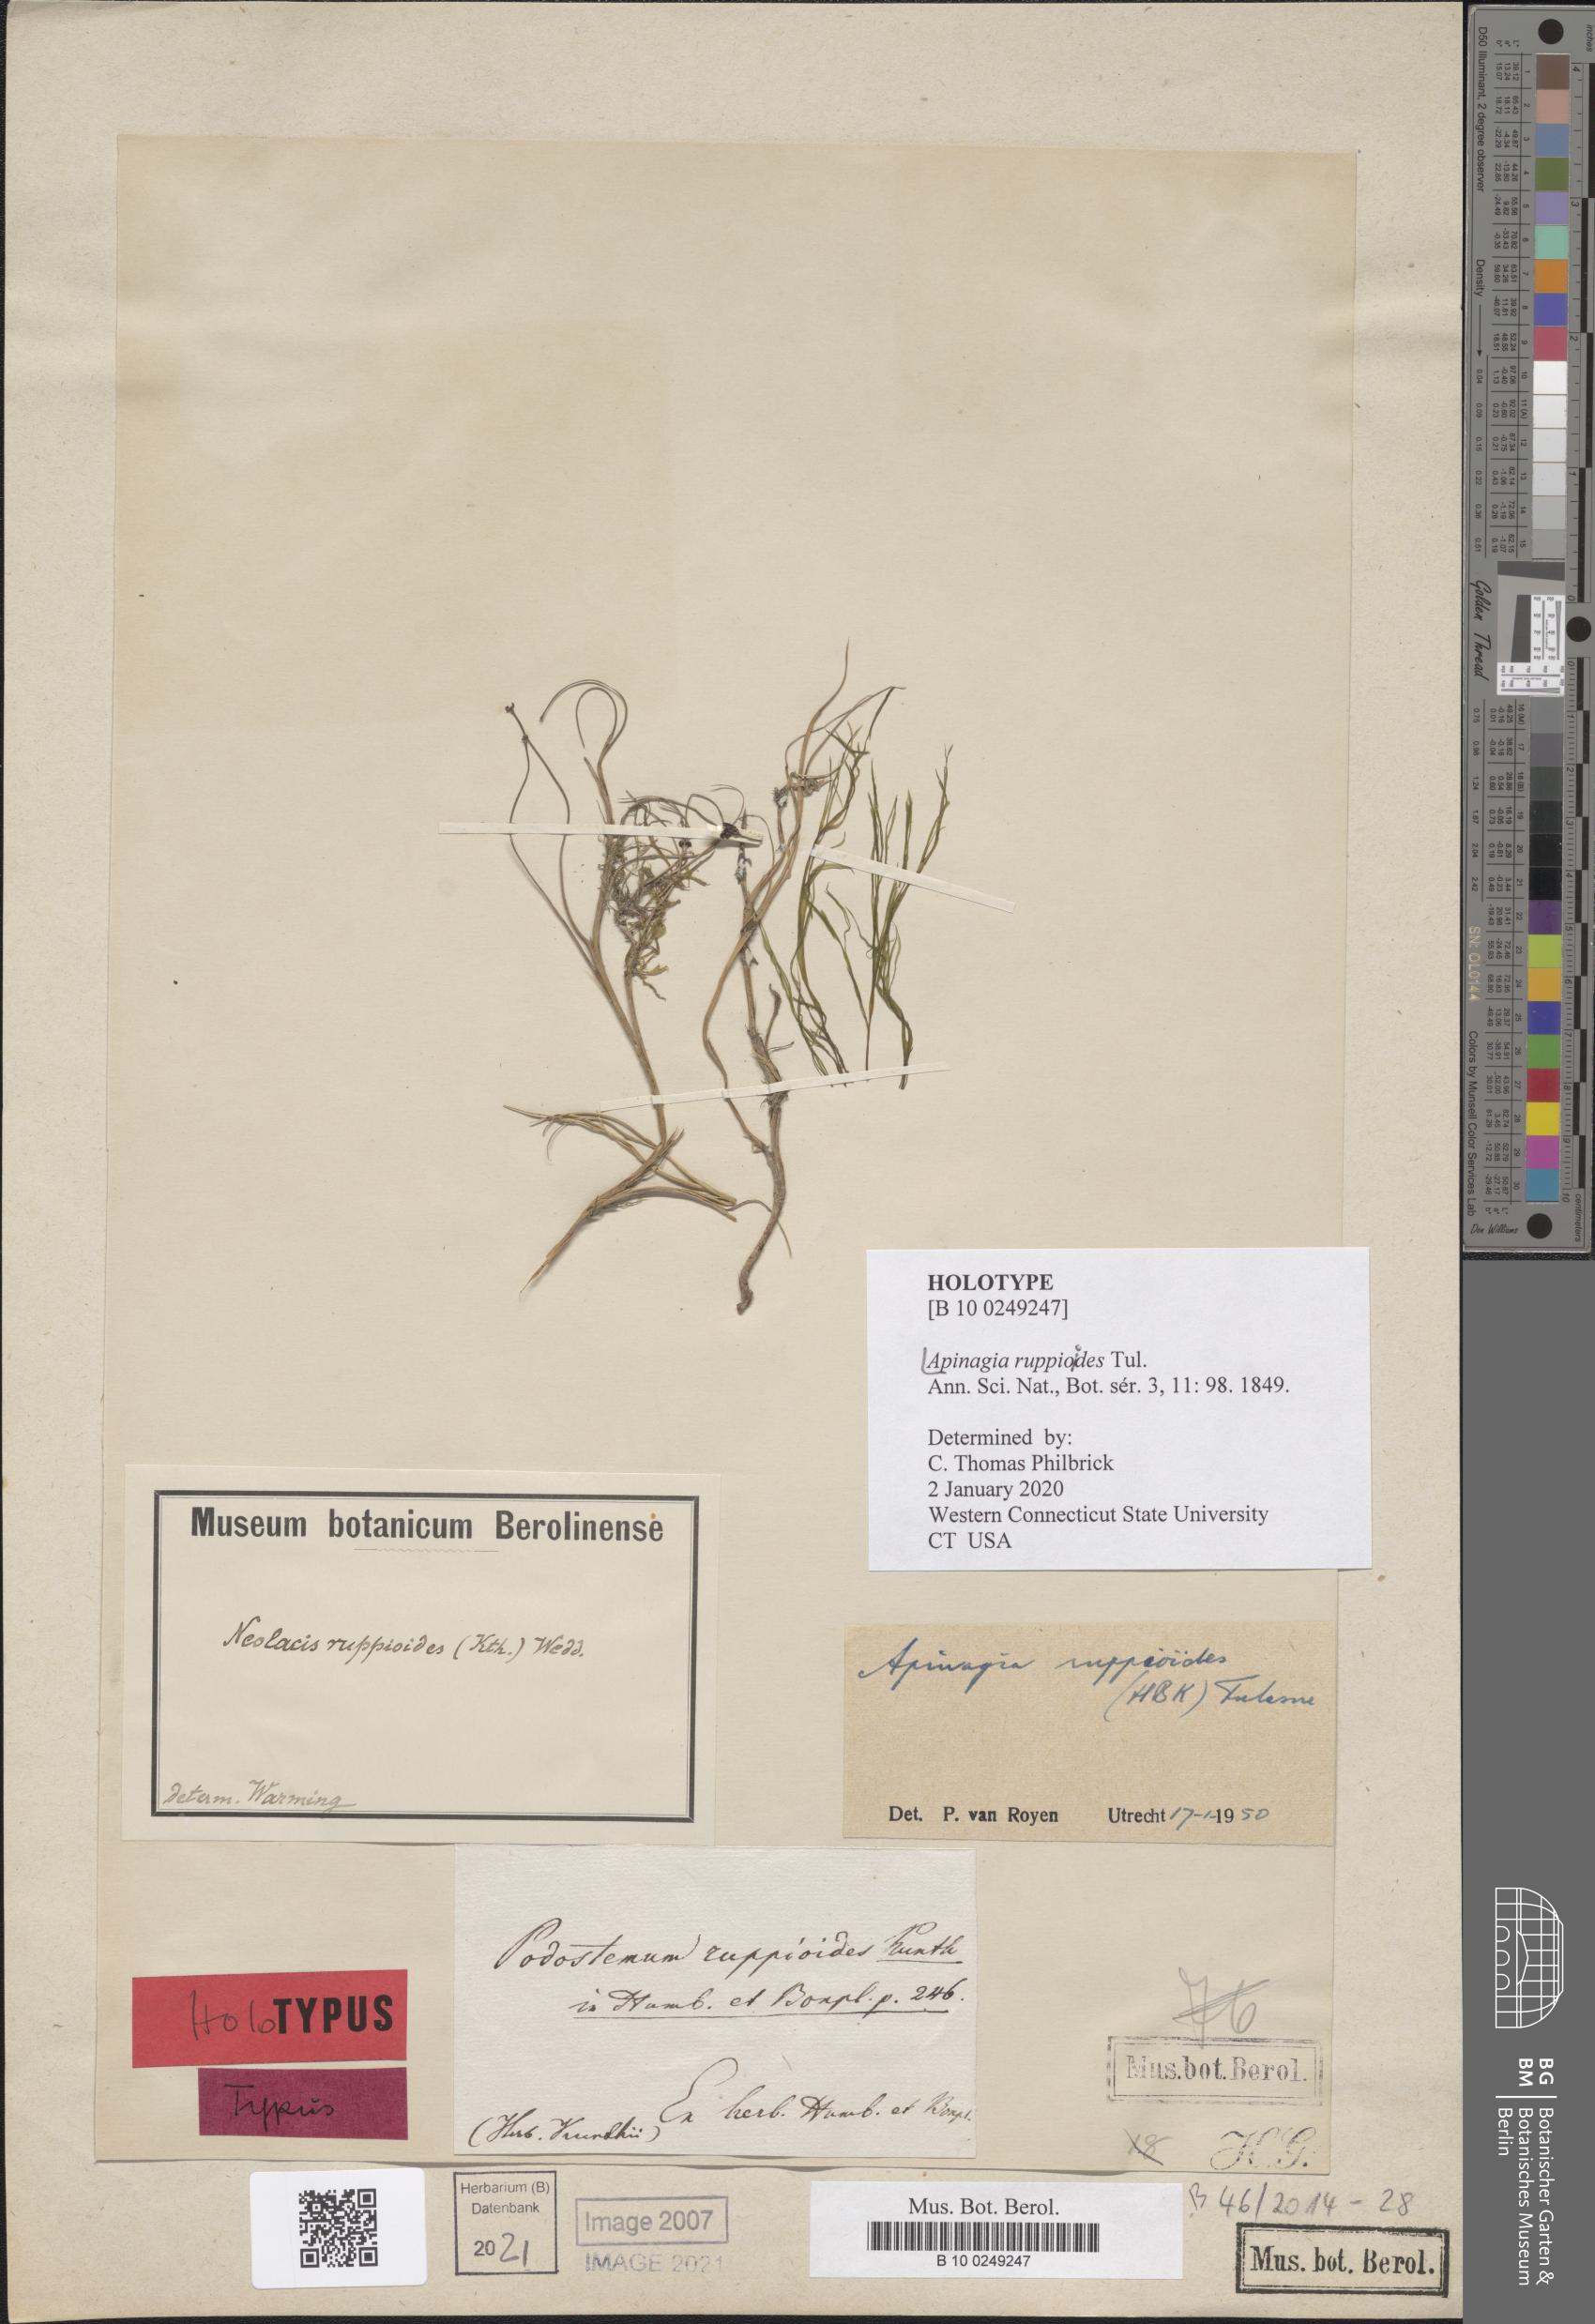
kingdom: Plantae
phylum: Tracheophyta
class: Magnoliopsida
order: Malpighiales
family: Podostemaceae
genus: Apinagia
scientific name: Apinagia ruppioides
